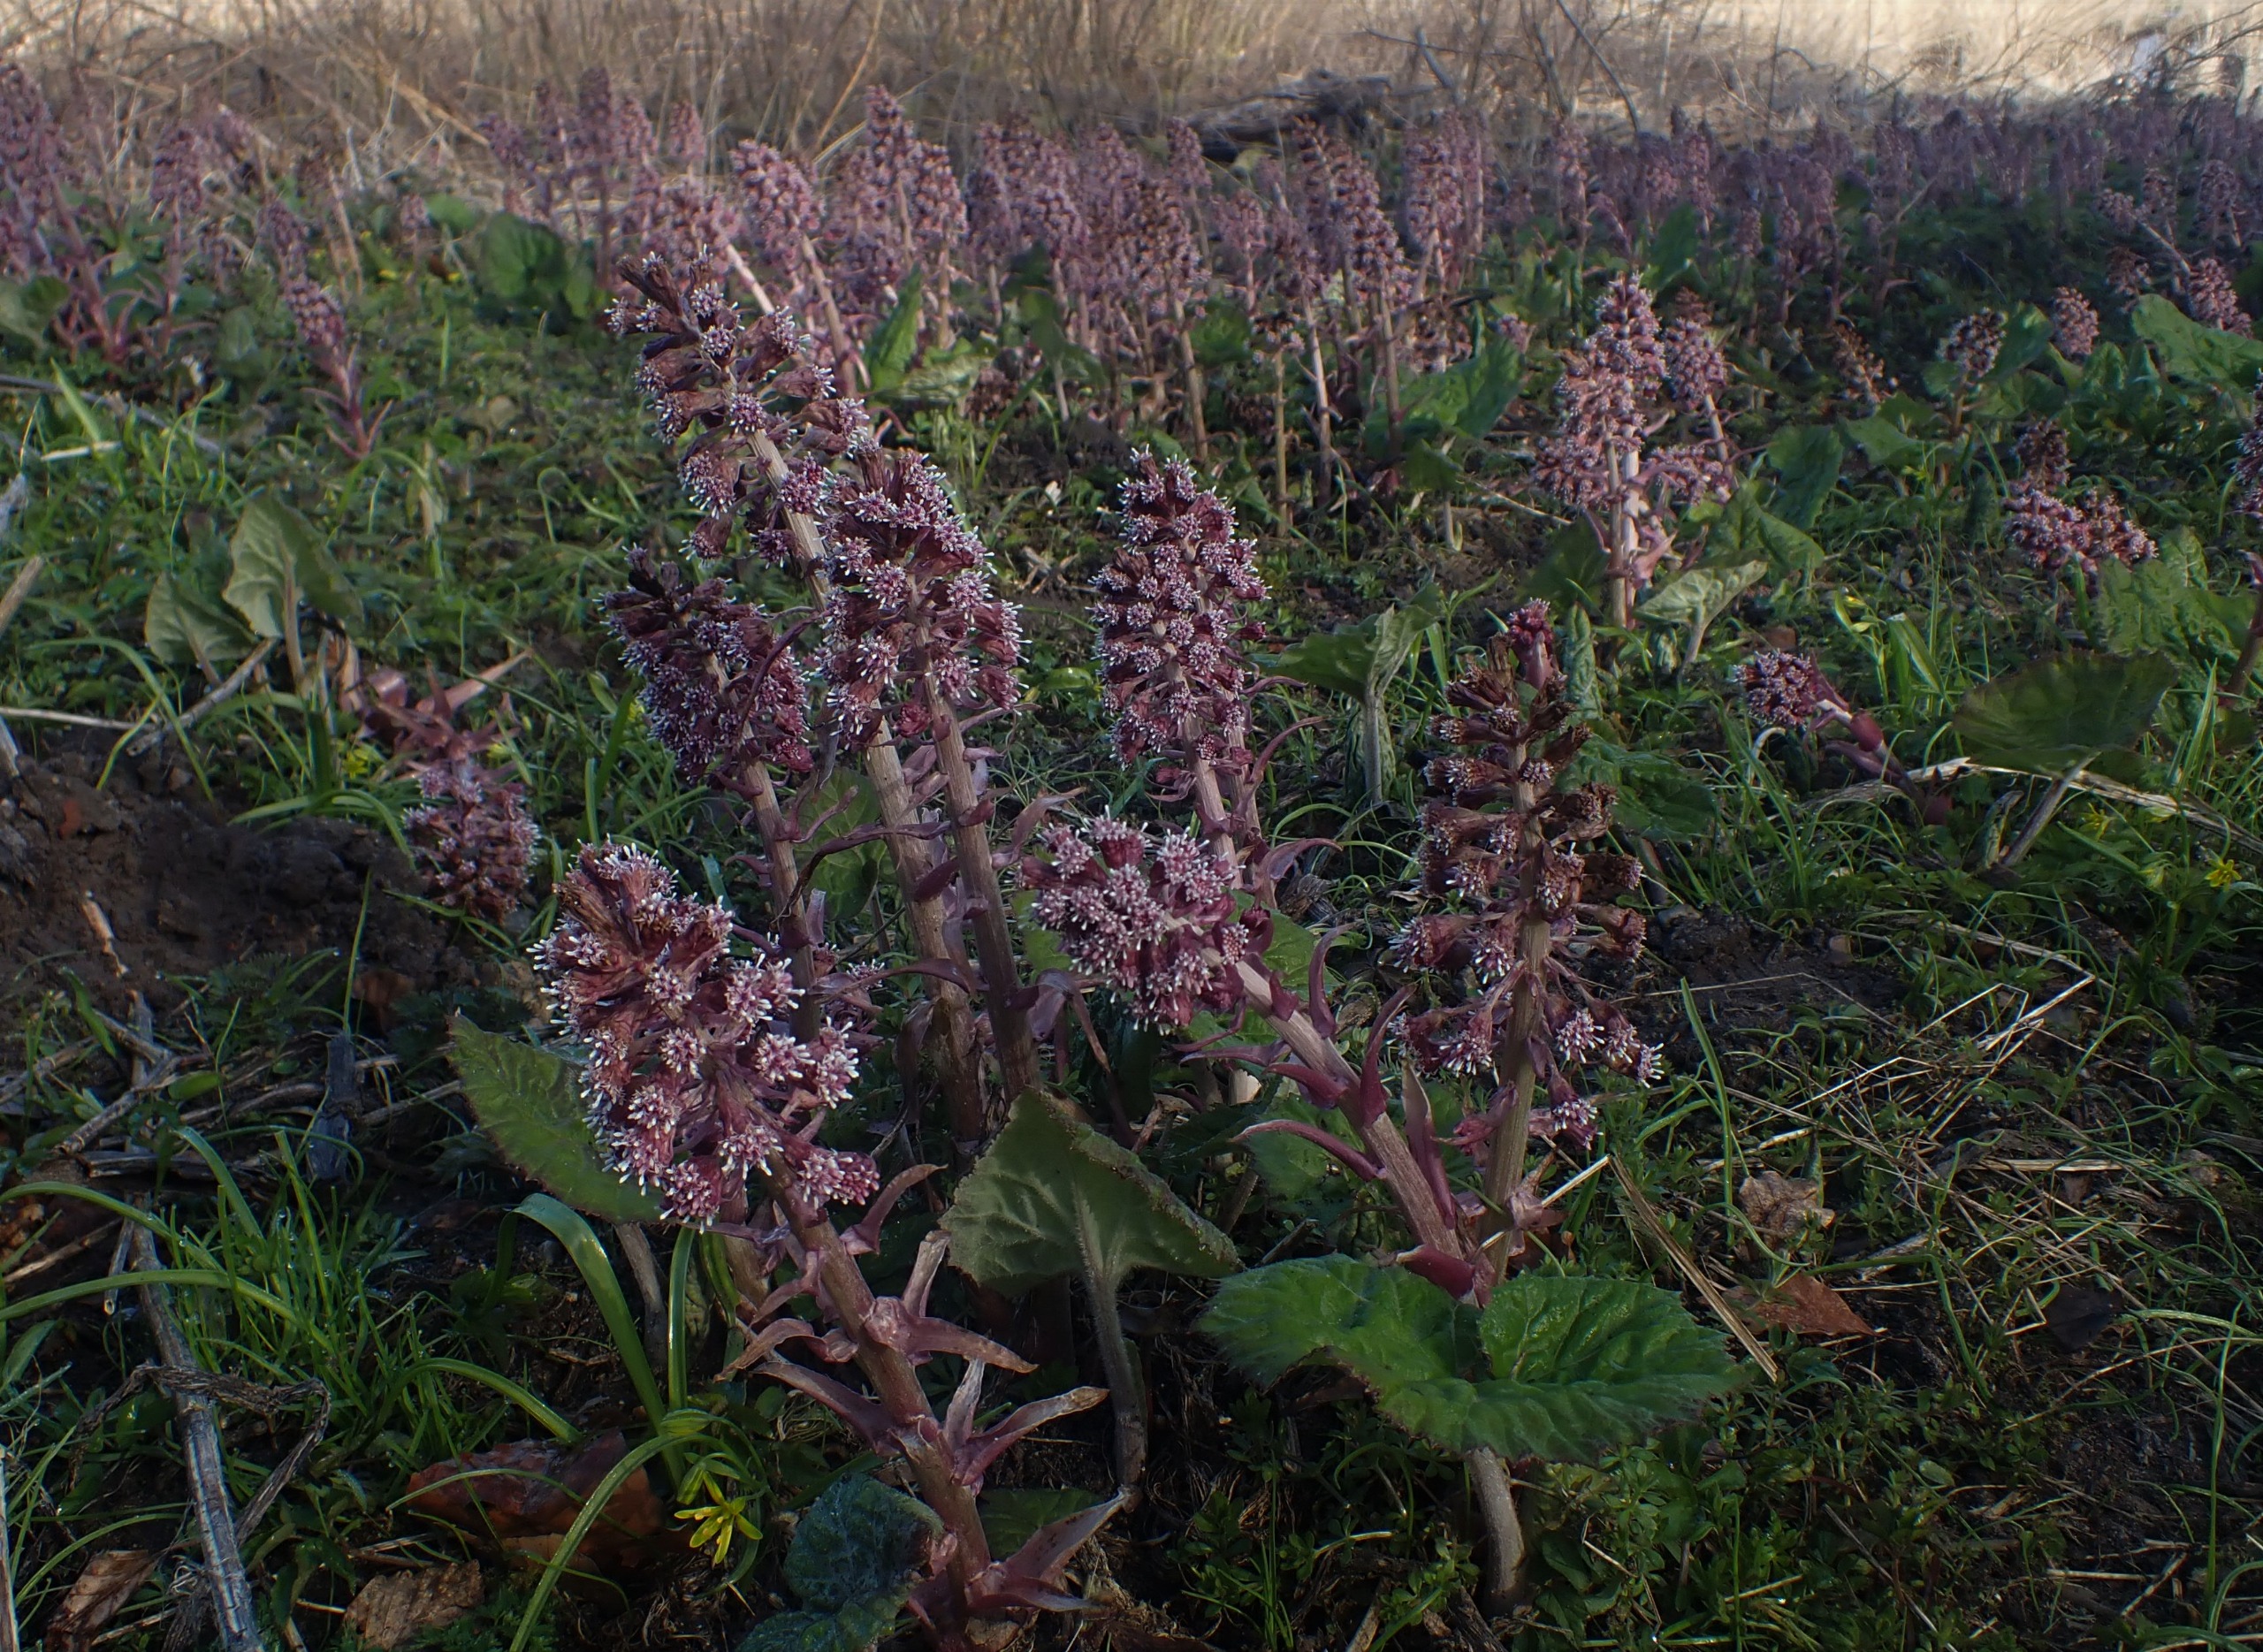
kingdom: Plantae
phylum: Tracheophyta
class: Magnoliopsida
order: Asterales
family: Asteraceae
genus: Petasites
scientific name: Petasites hybridus
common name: Rød hestehov
